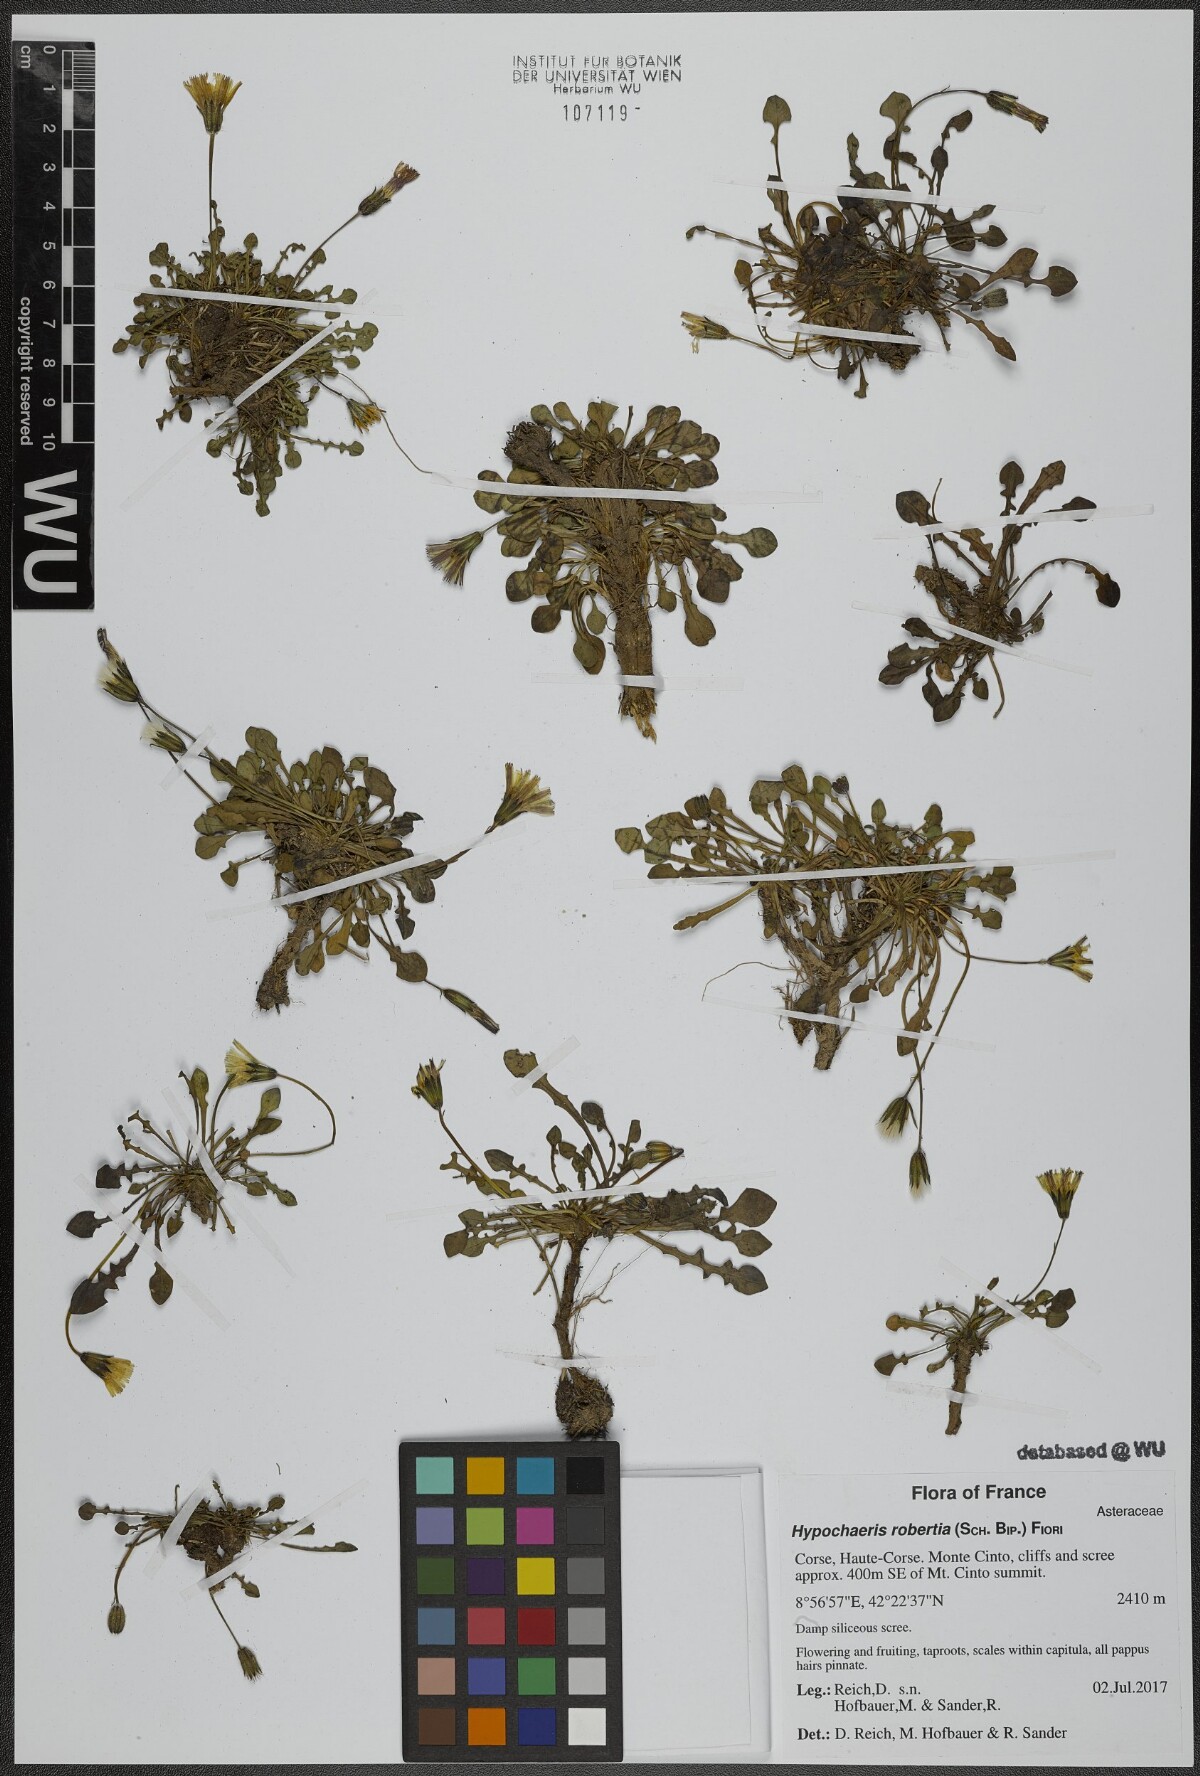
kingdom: Plantae
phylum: Tracheophyta
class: Magnoliopsida
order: Asterales
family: Asteraceae
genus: Hypochaeris
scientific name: Hypochaeris robertia
